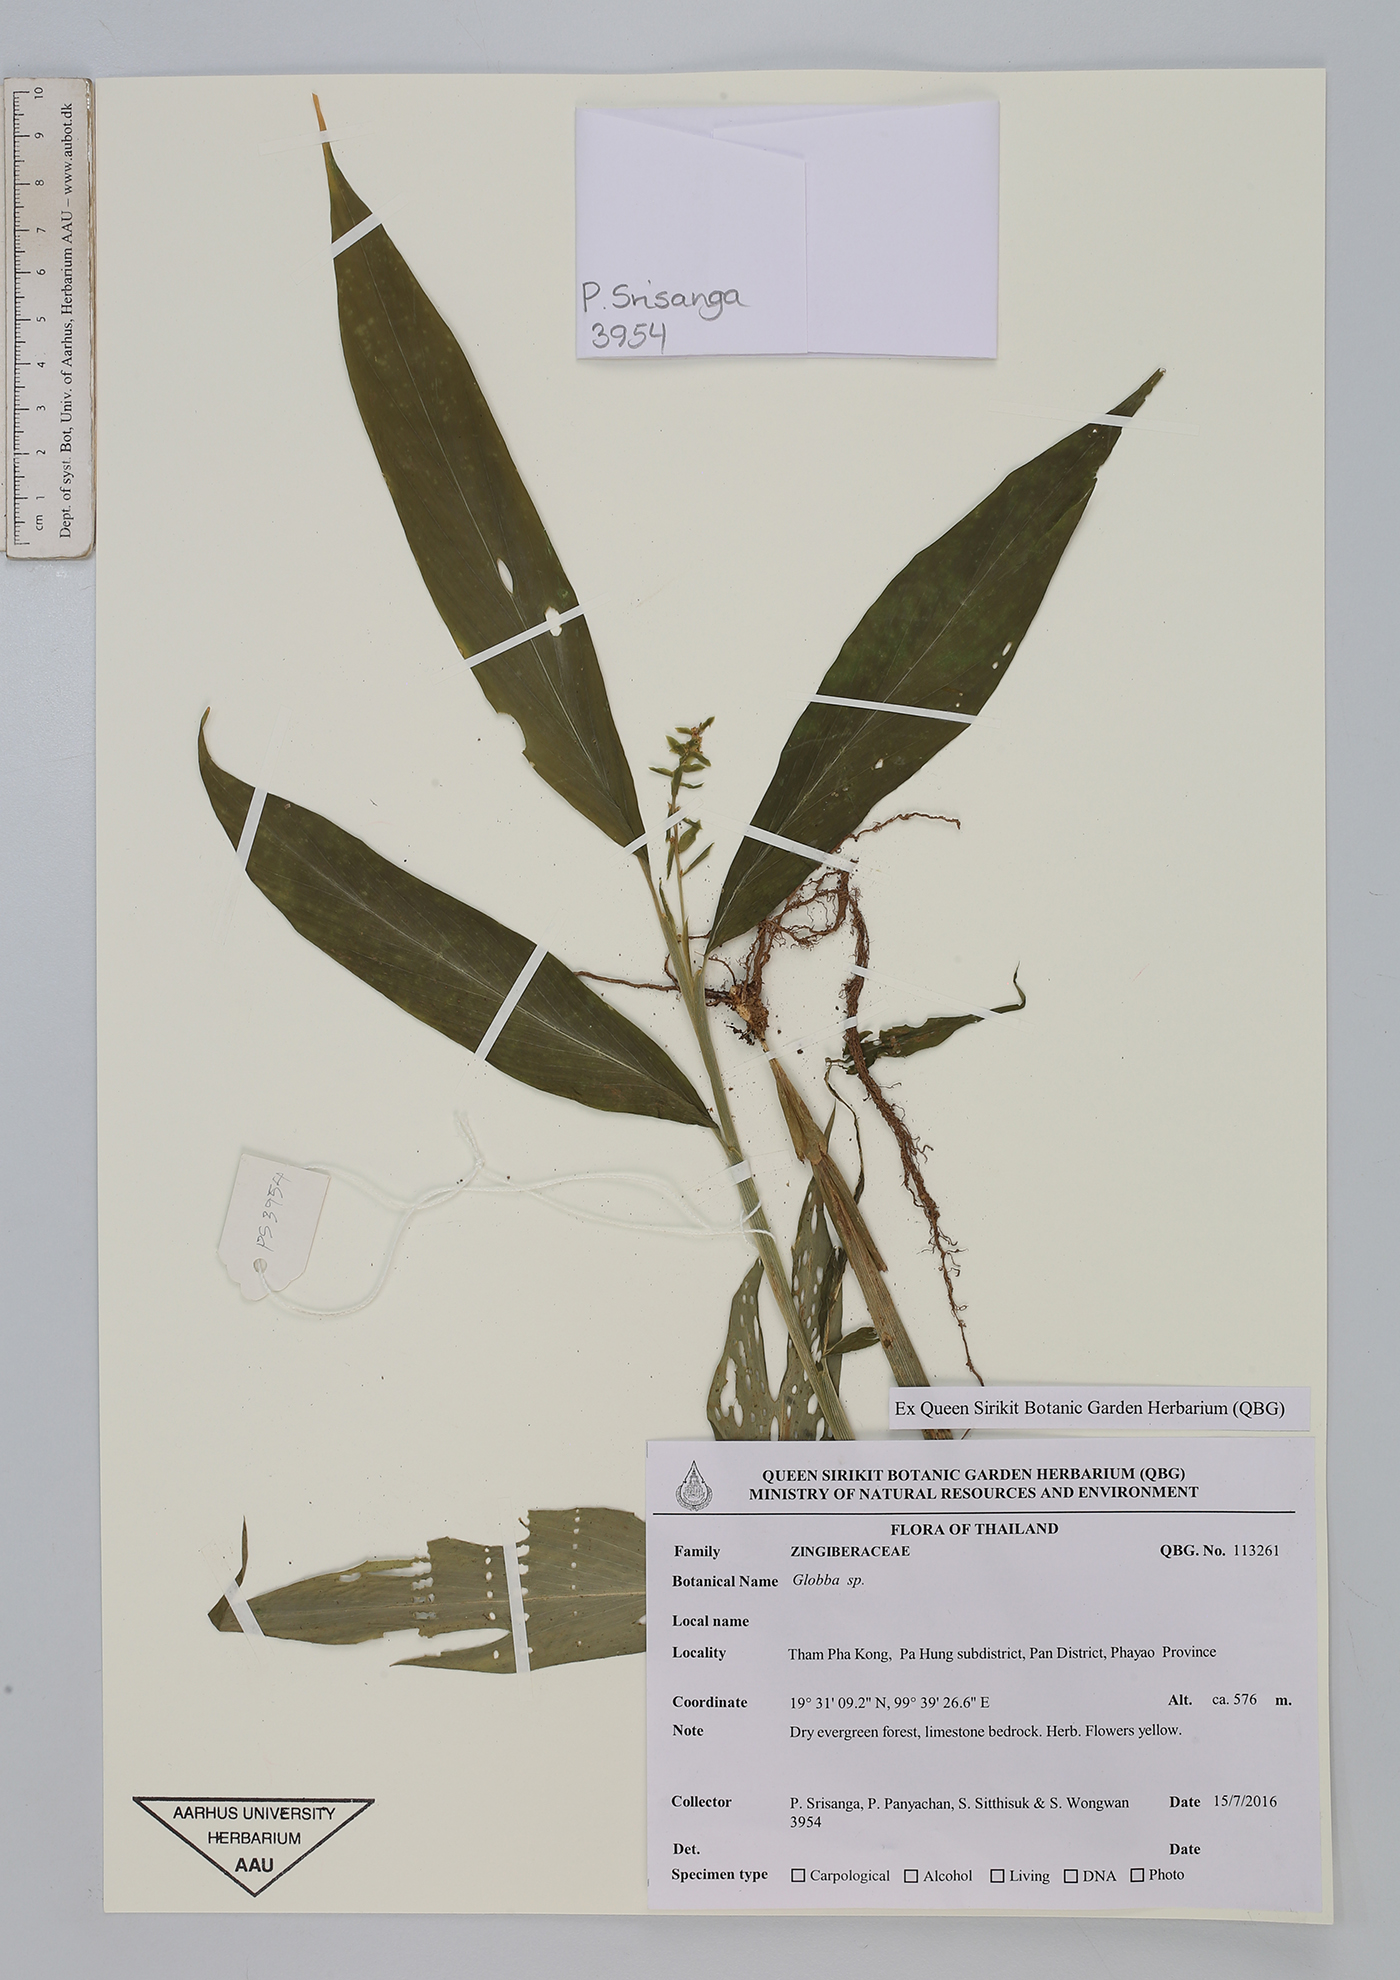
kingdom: Plantae
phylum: Tracheophyta
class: Liliopsida
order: Zingiberales
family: Zingiberaceae
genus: Globba
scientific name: Globba
